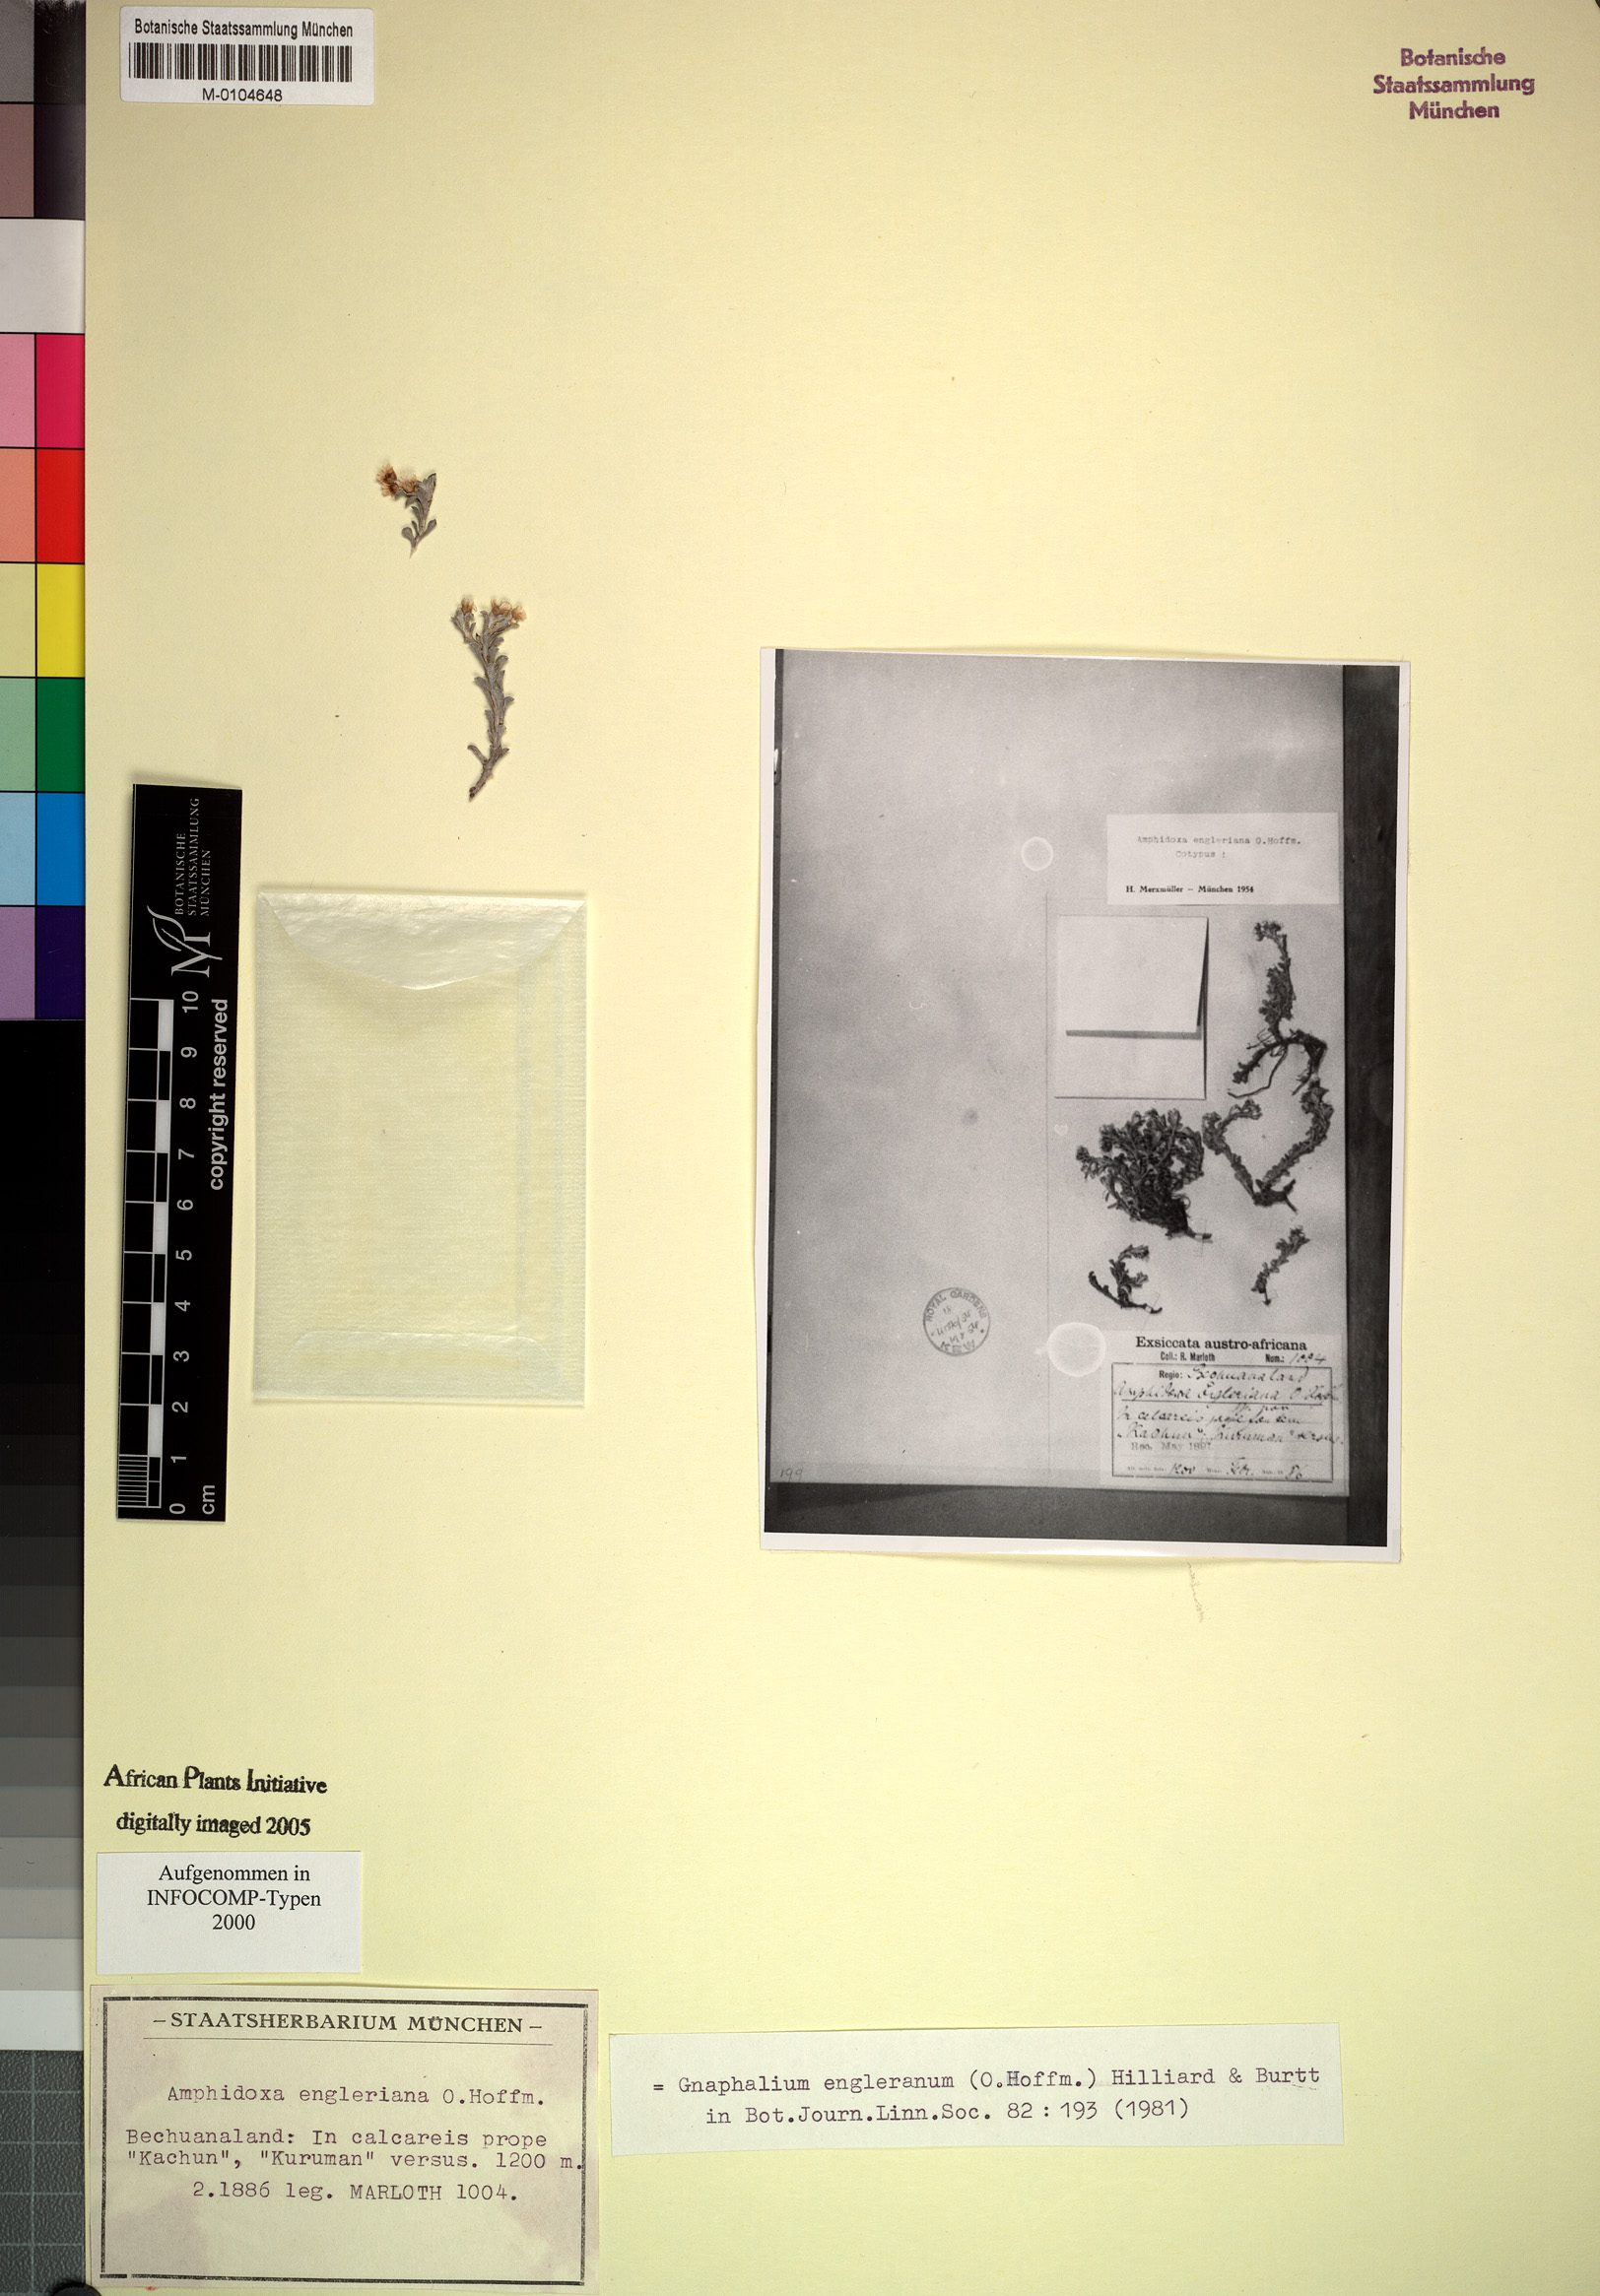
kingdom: Plantae
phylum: Tracheophyta
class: Magnoliopsida
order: Asterales
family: Asteraceae
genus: Gnaphalium
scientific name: Gnaphalium englerianum
